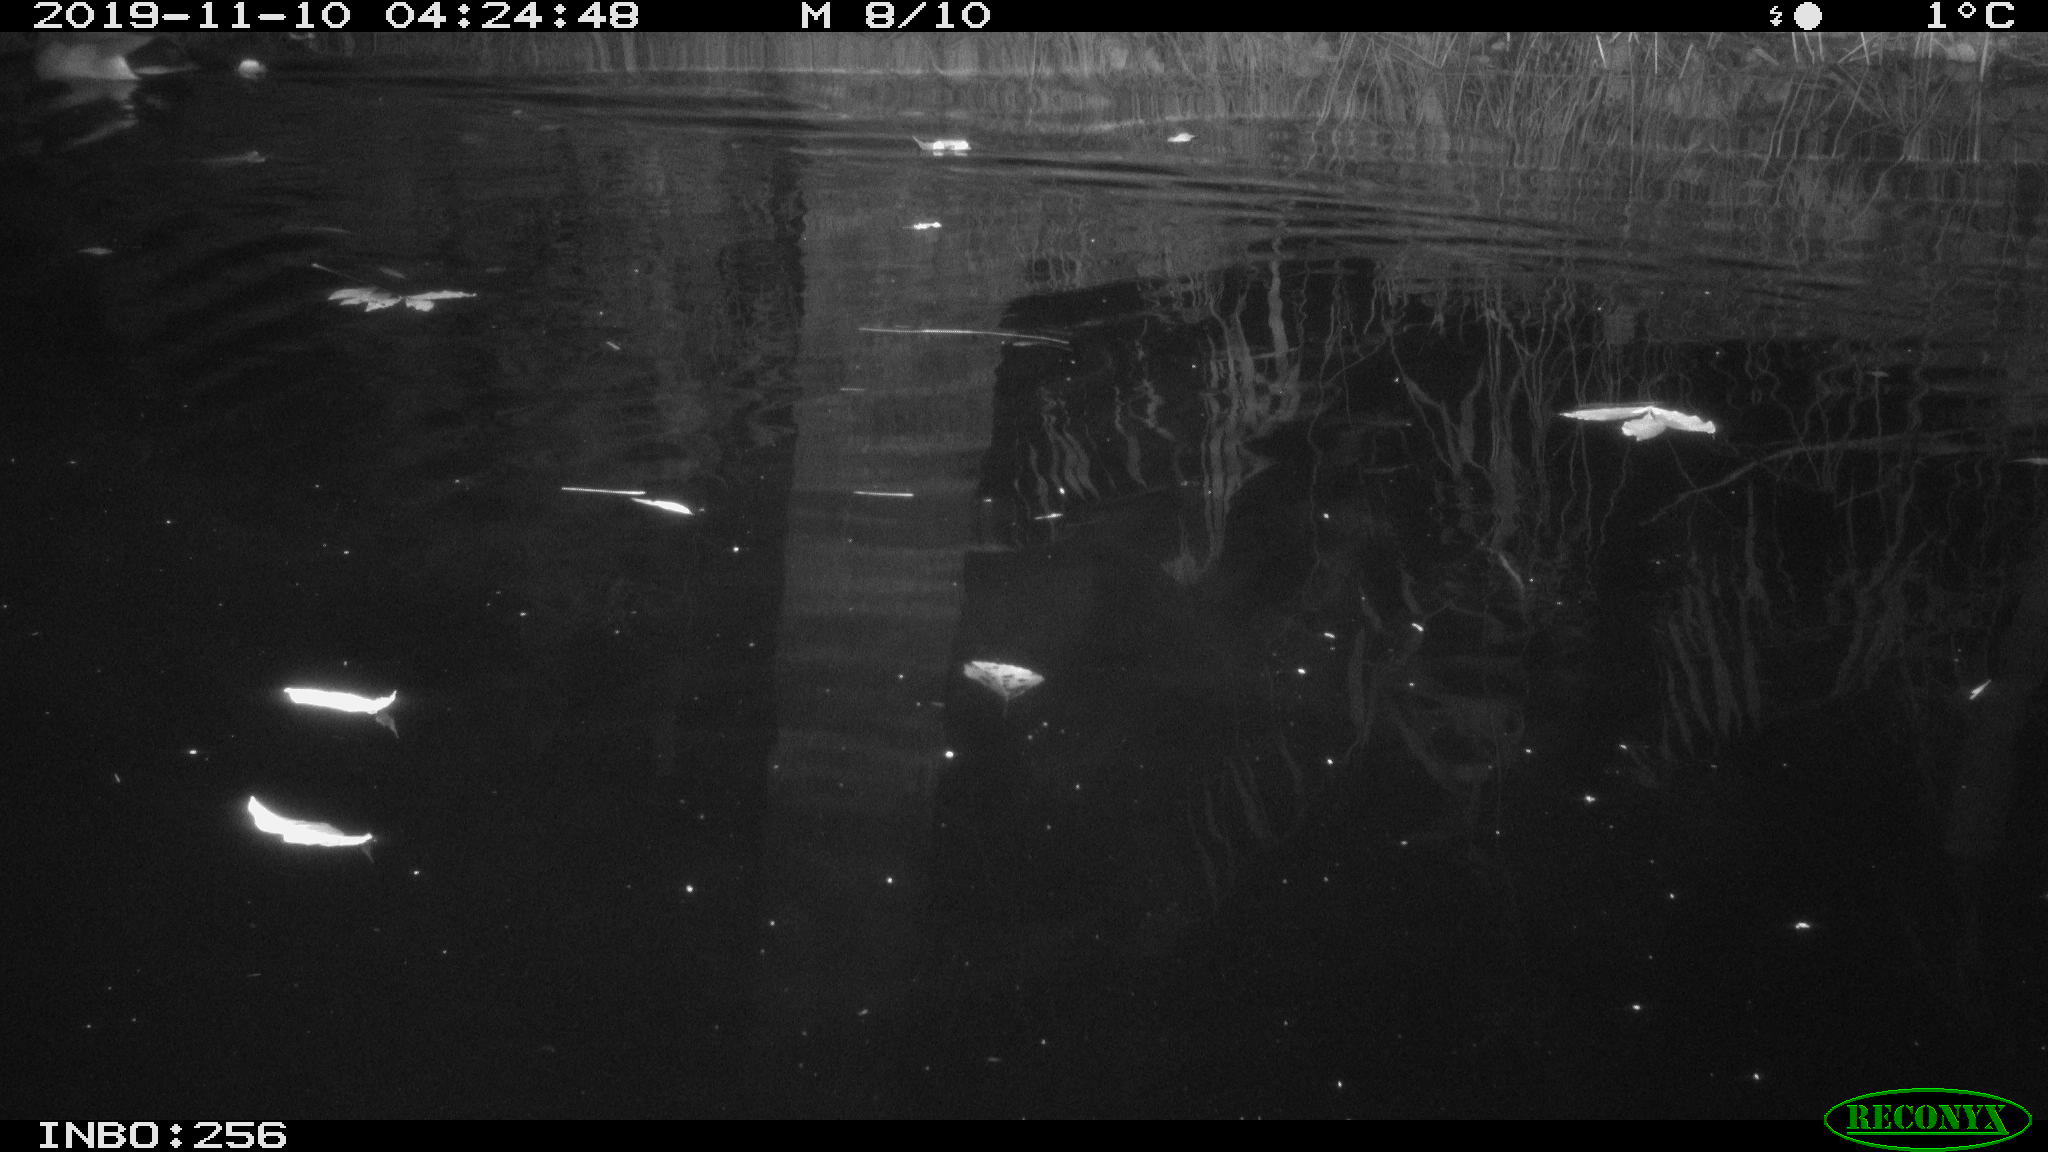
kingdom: Animalia
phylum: Chordata
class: Aves
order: Anseriformes
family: Anatidae
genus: Anas
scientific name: Anas platyrhynchos
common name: Mallard
